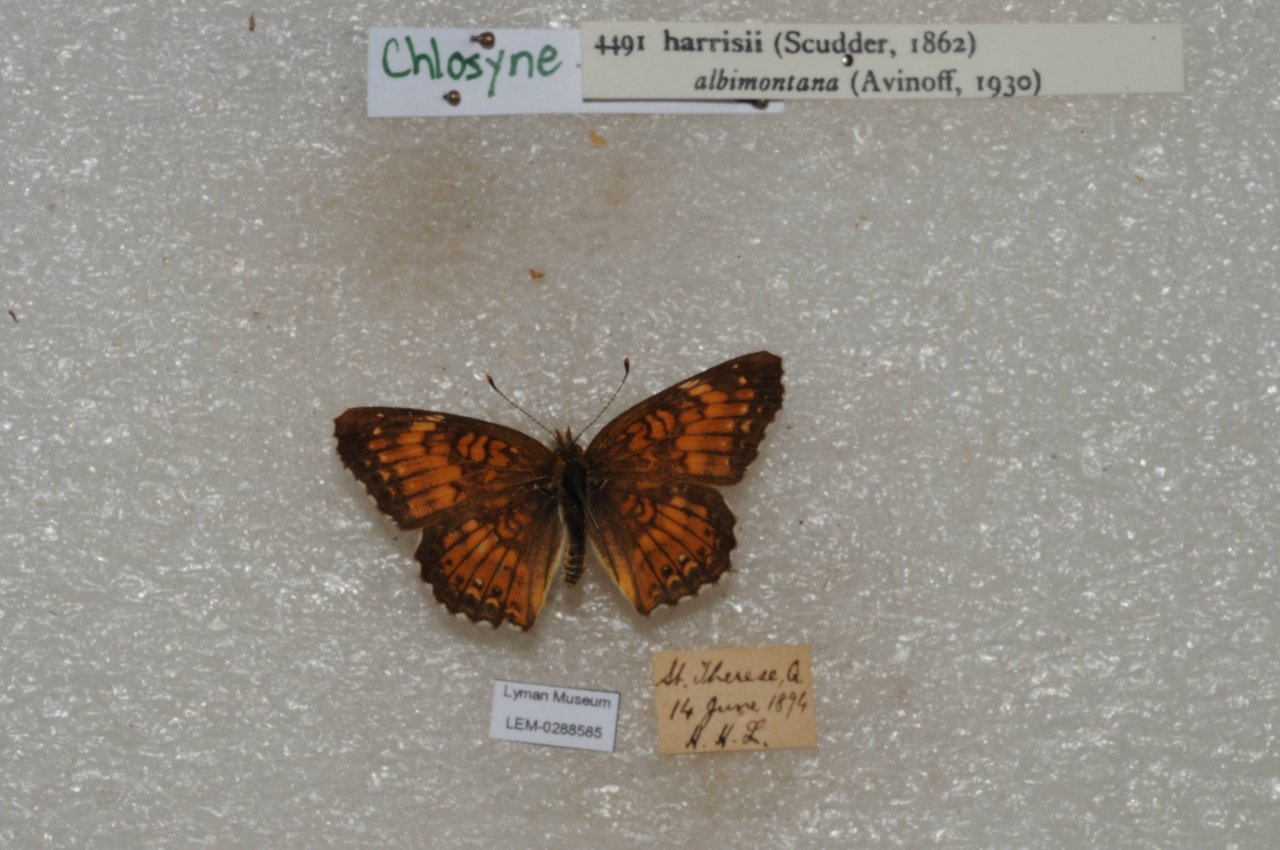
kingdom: Animalia
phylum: Arthropoda
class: Insecta
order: Lepidoptera
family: Nymphalidae
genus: Chlosyne
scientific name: Chlosyne harrisii
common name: Harris's Checkerspot
